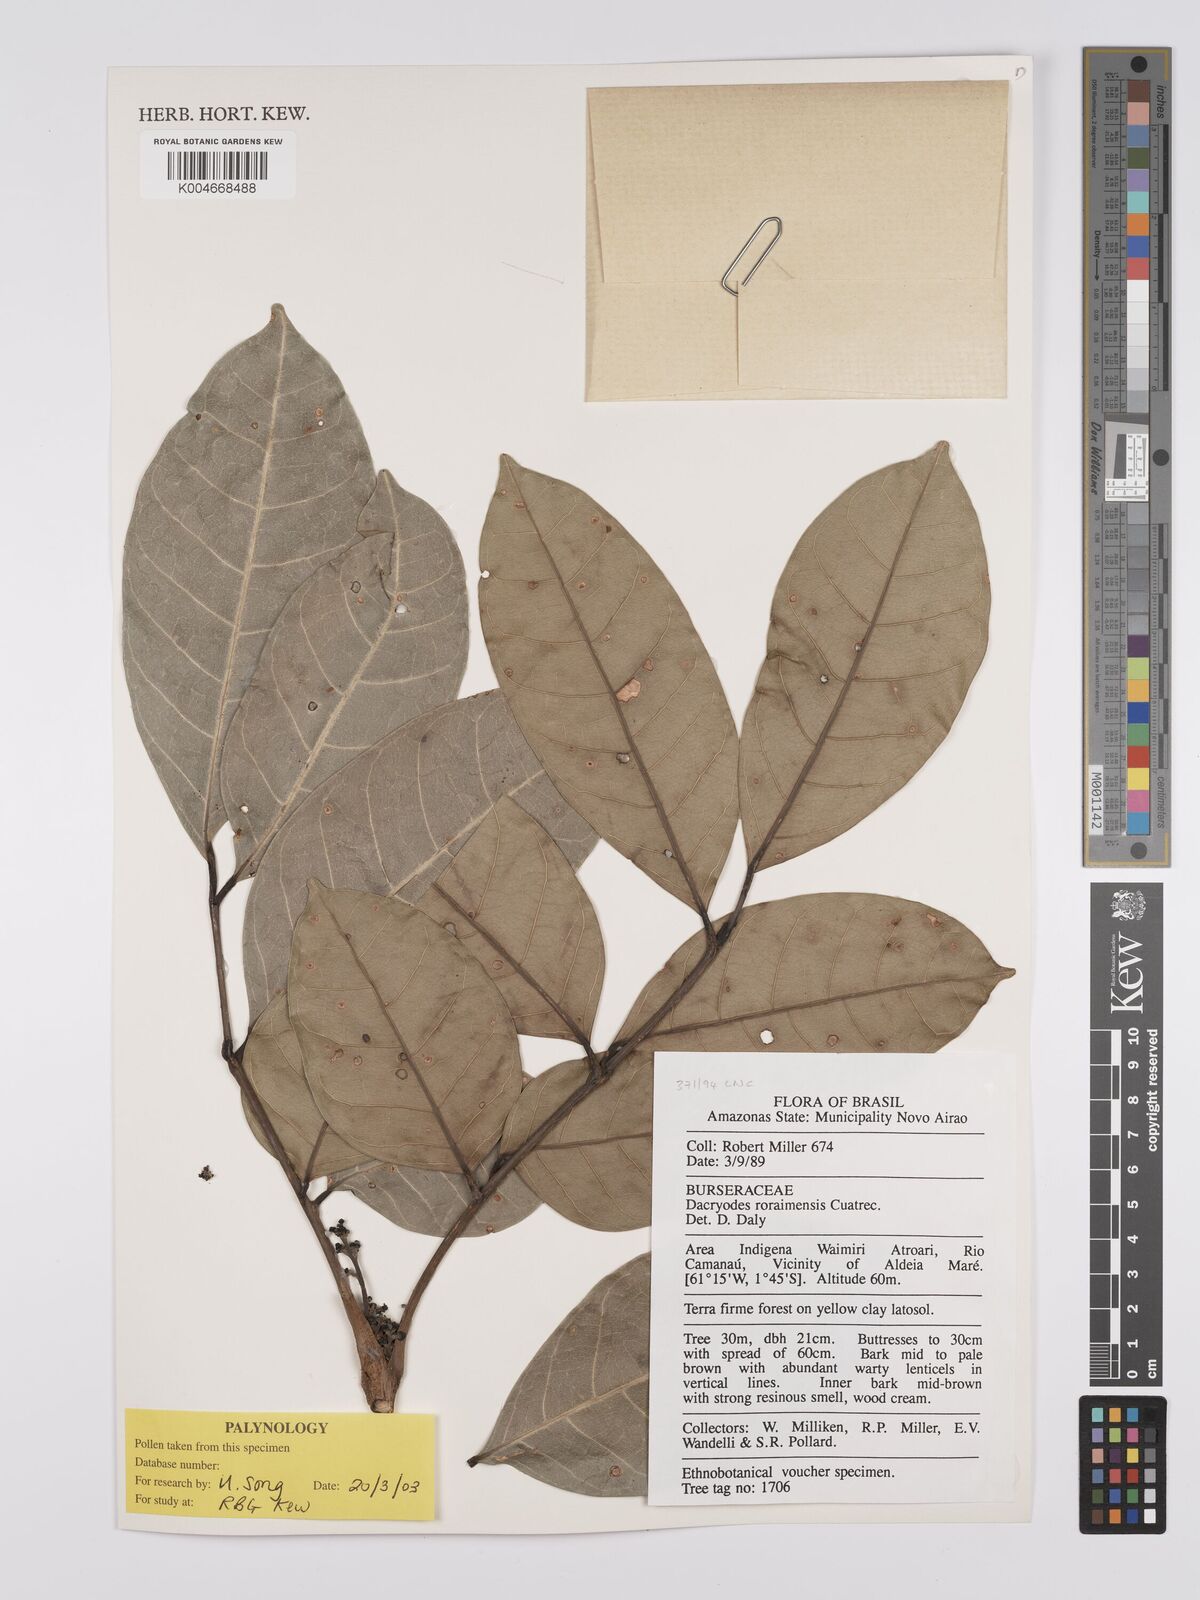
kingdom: Plantae
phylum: Tracheophyta
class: Magnoliopsida
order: Sapindales
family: Burseraceae
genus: Dacryodes
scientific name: Dacryodes roraimensis
